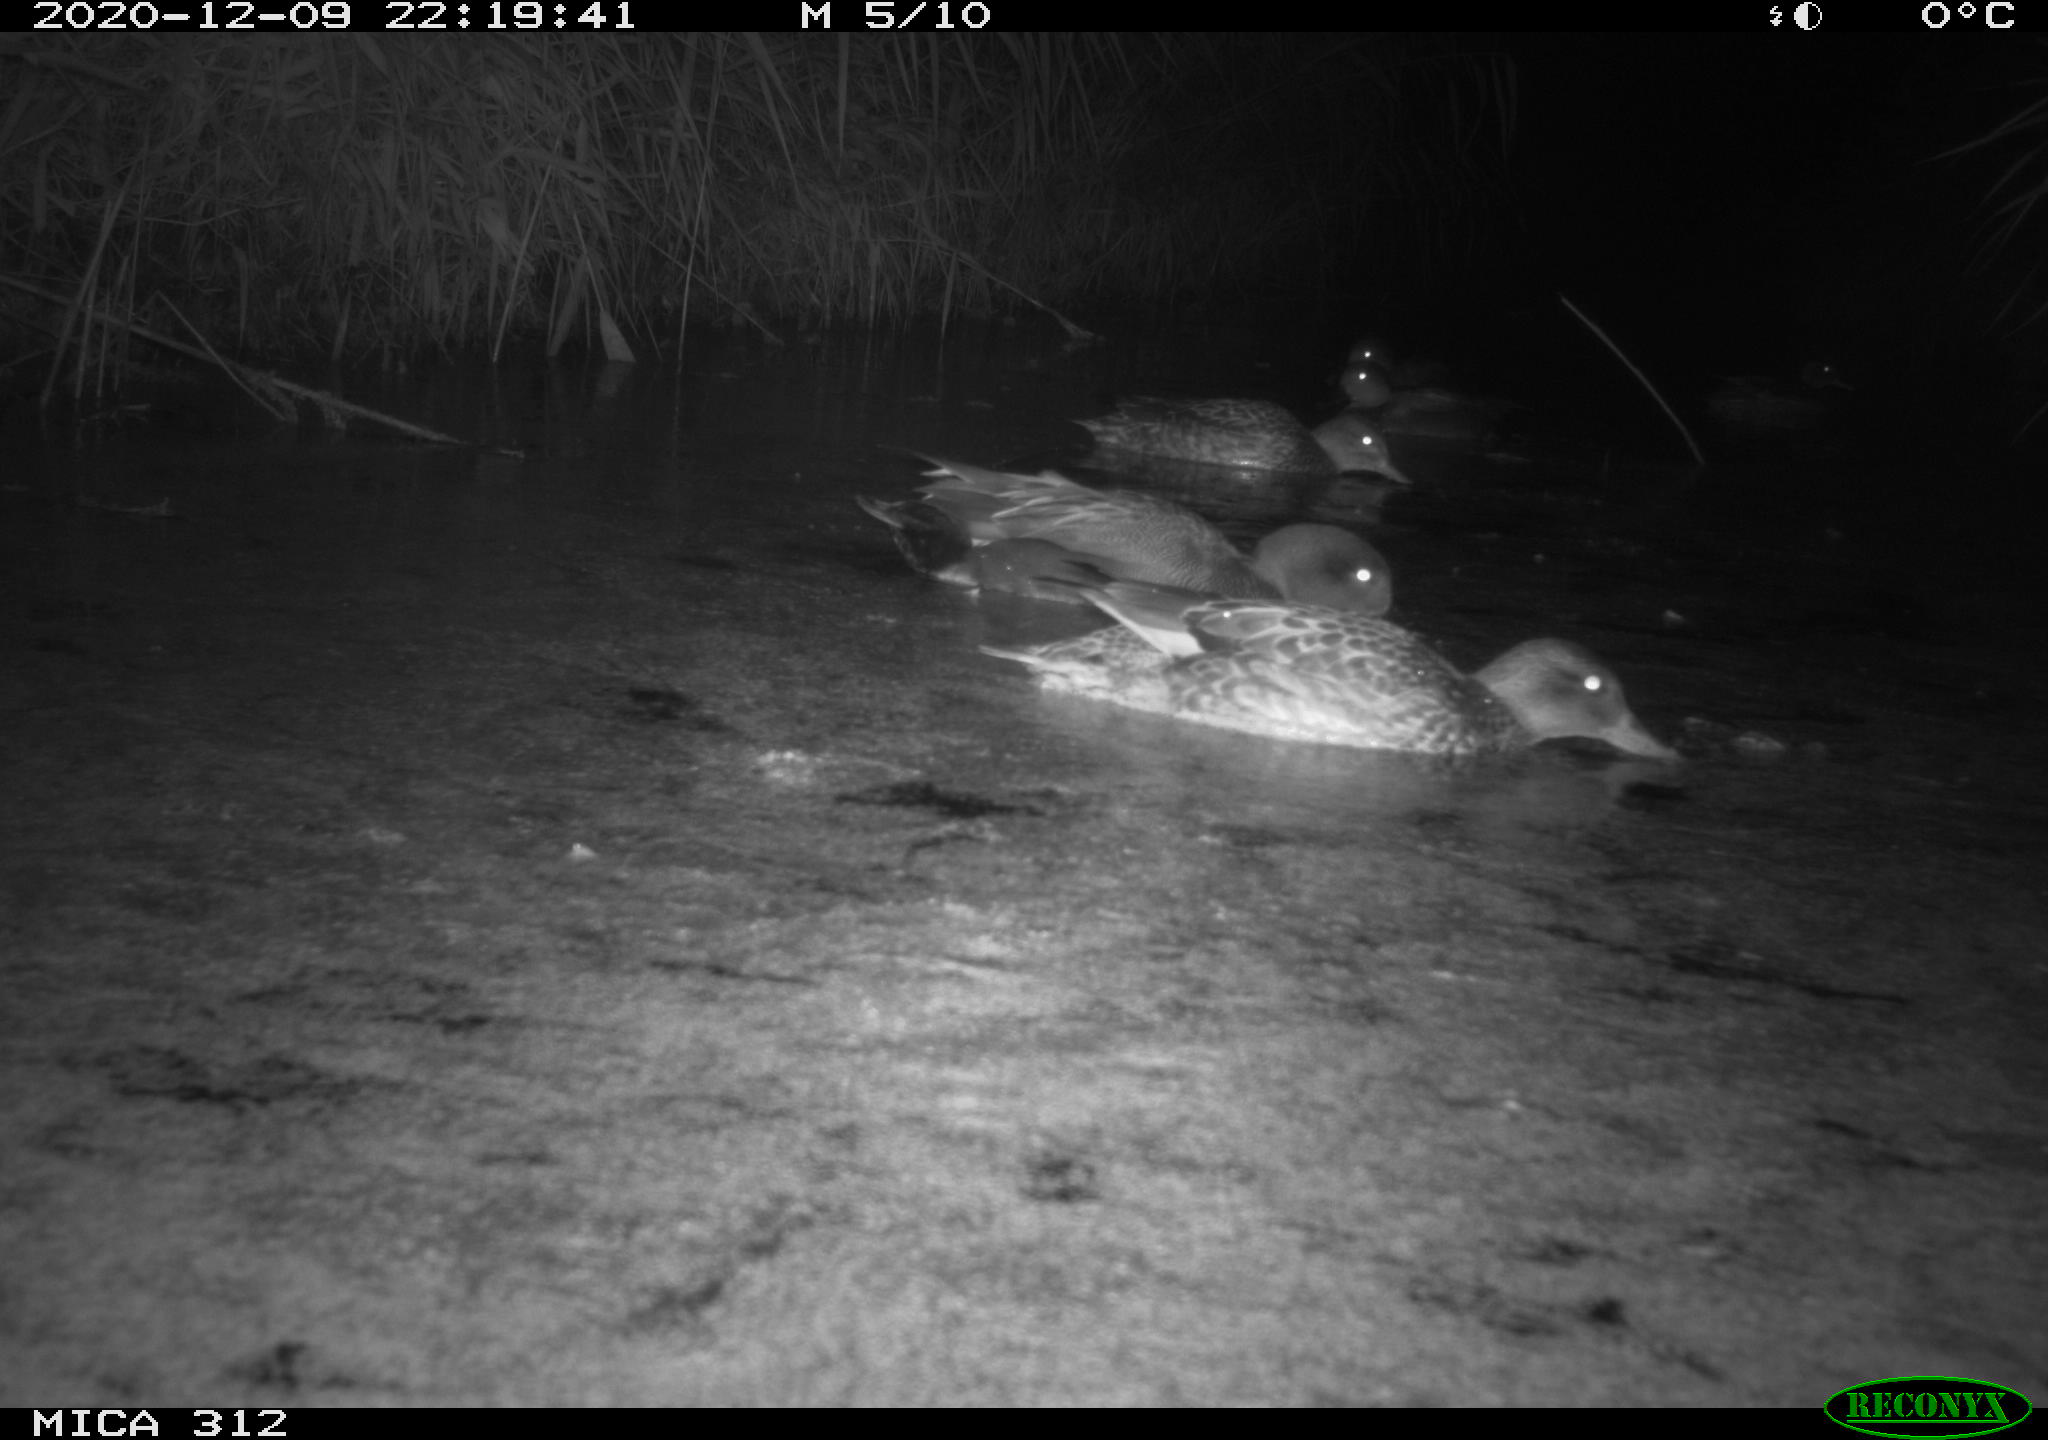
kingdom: Animalia
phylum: Chordata
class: Aves
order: Anseriformes
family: Anatidae
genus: Mareca
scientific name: Mareca strepera
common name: Gadwall
